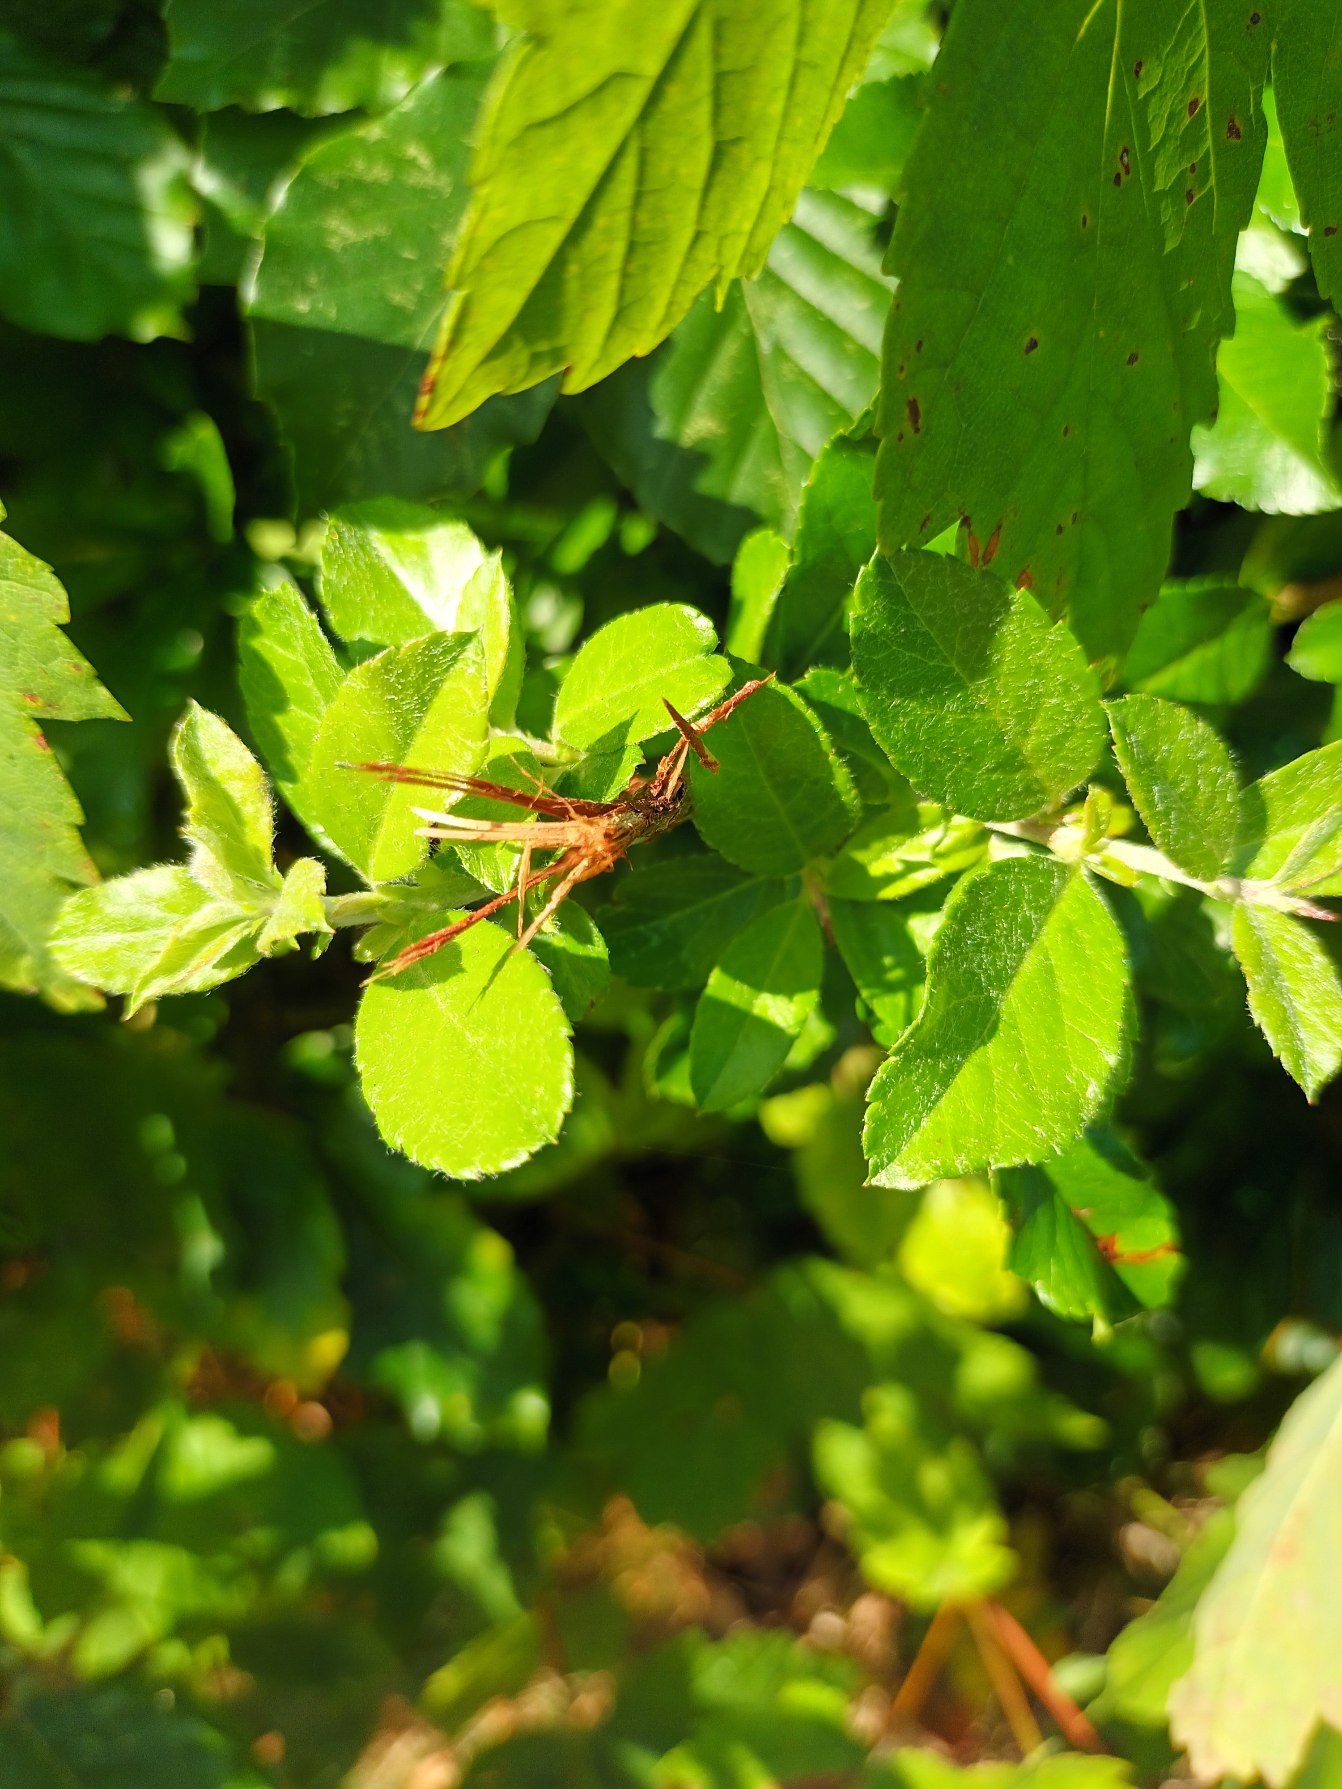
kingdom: Plantae
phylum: Tracheophyta
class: Magnoliopsida
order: Rosales
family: Rosaceae
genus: Pyracantha
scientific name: Pyracantha crenulata
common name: Orangegul ildtorn
